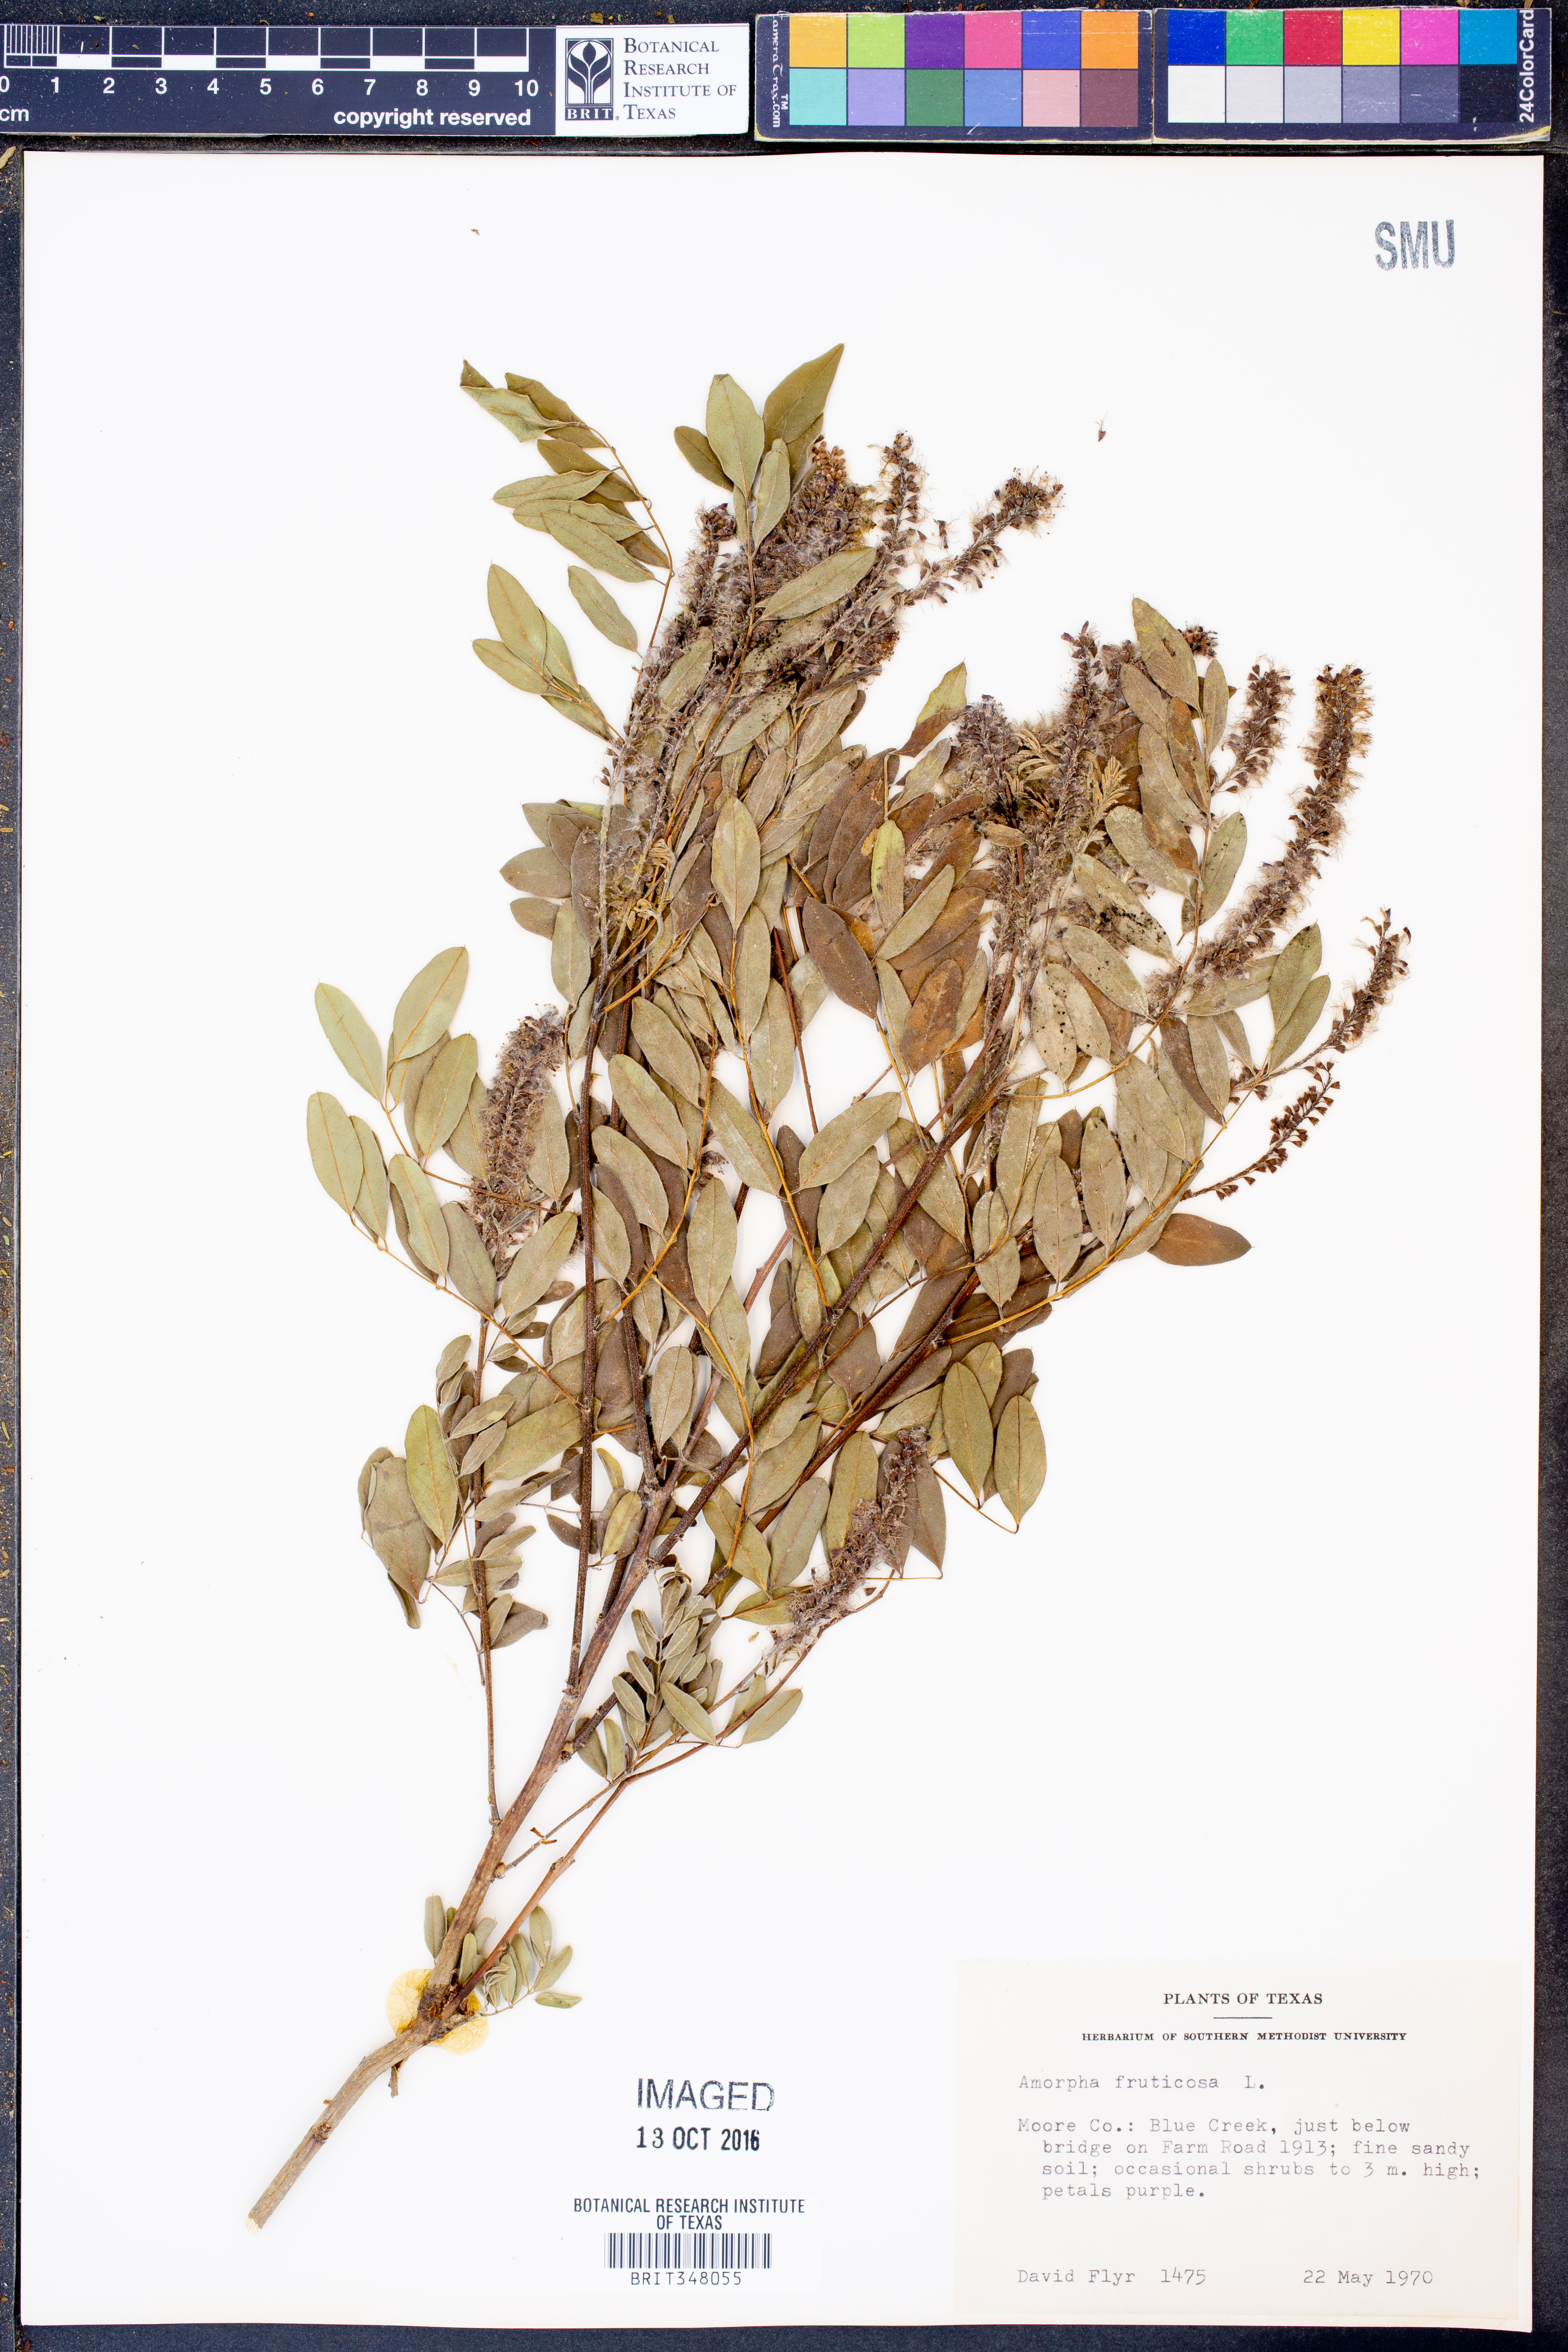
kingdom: Plantae
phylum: Tracheophyta
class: Magnoliopsida
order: Fabales
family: Fabaceae
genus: Amorpha
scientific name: Amorpha fruticosa
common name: False indigo
